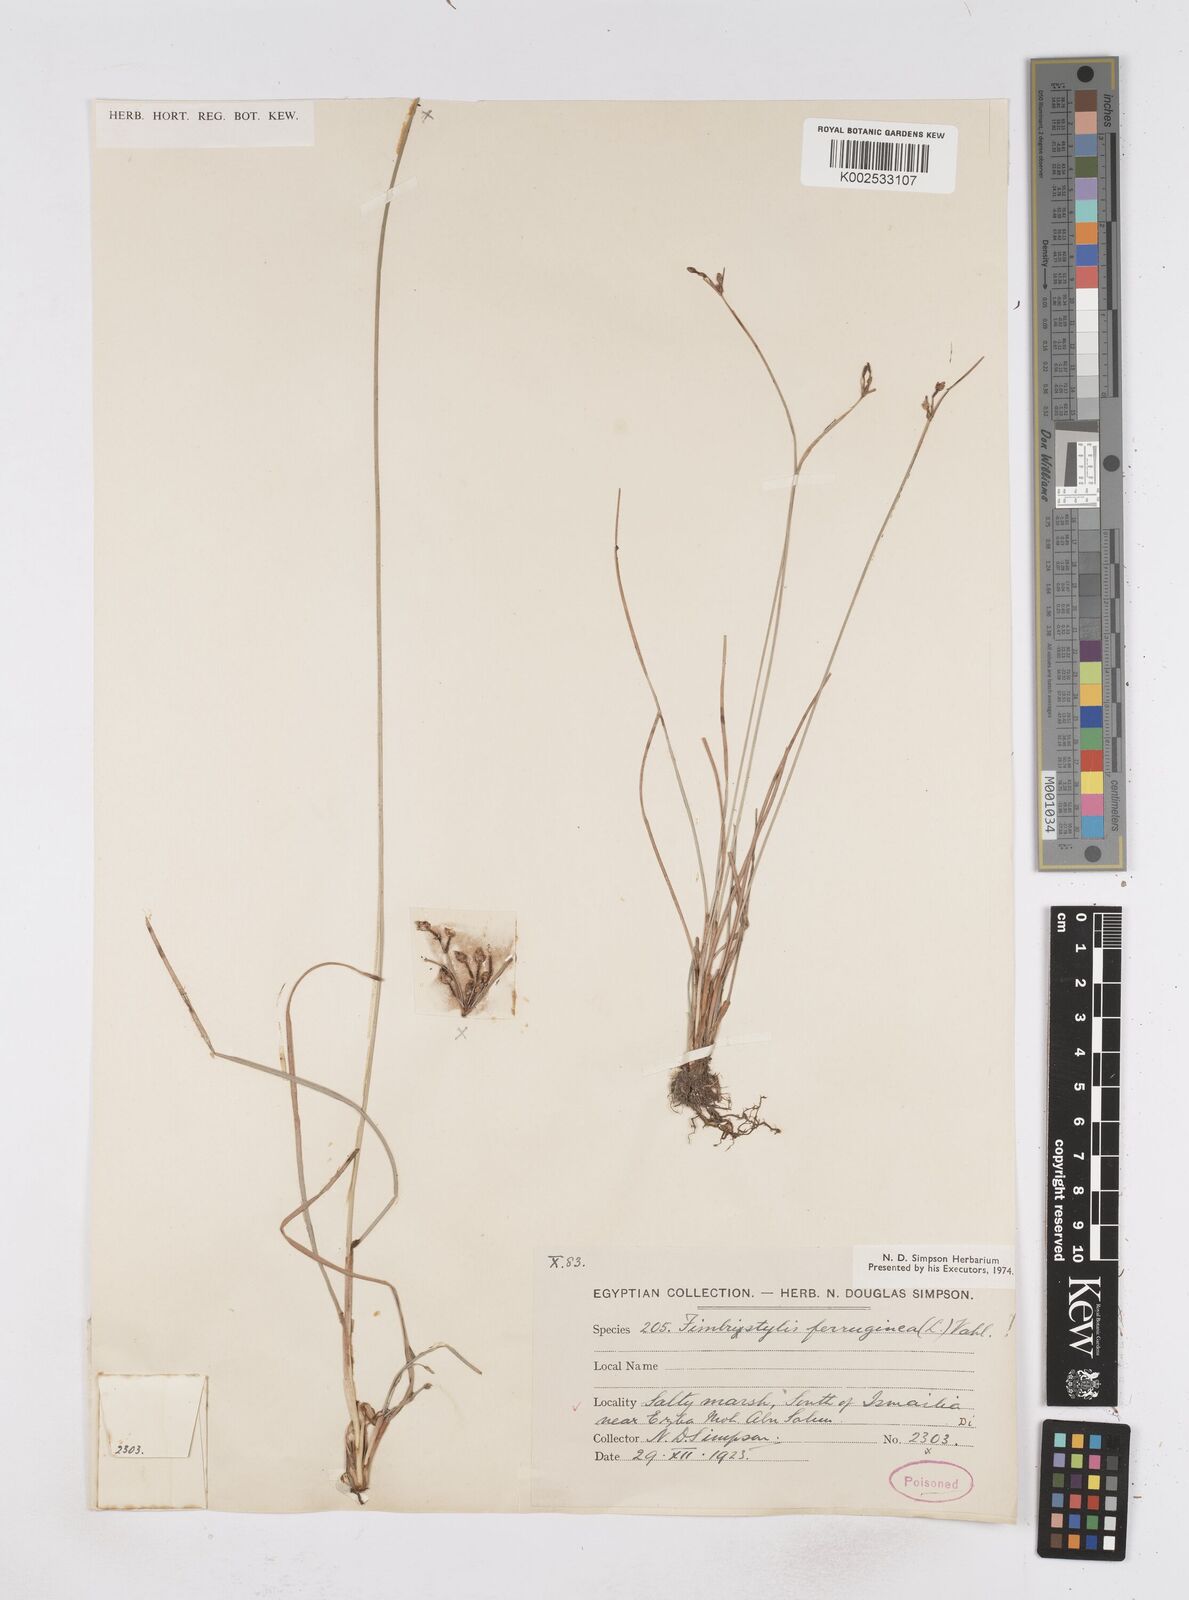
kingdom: Plantae
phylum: Tracheophyta
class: Liliopsida
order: Poales
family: Cyperaceae
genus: Fimbristylis
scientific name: Fimbristylis ferruginea
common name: West indian fimbry
